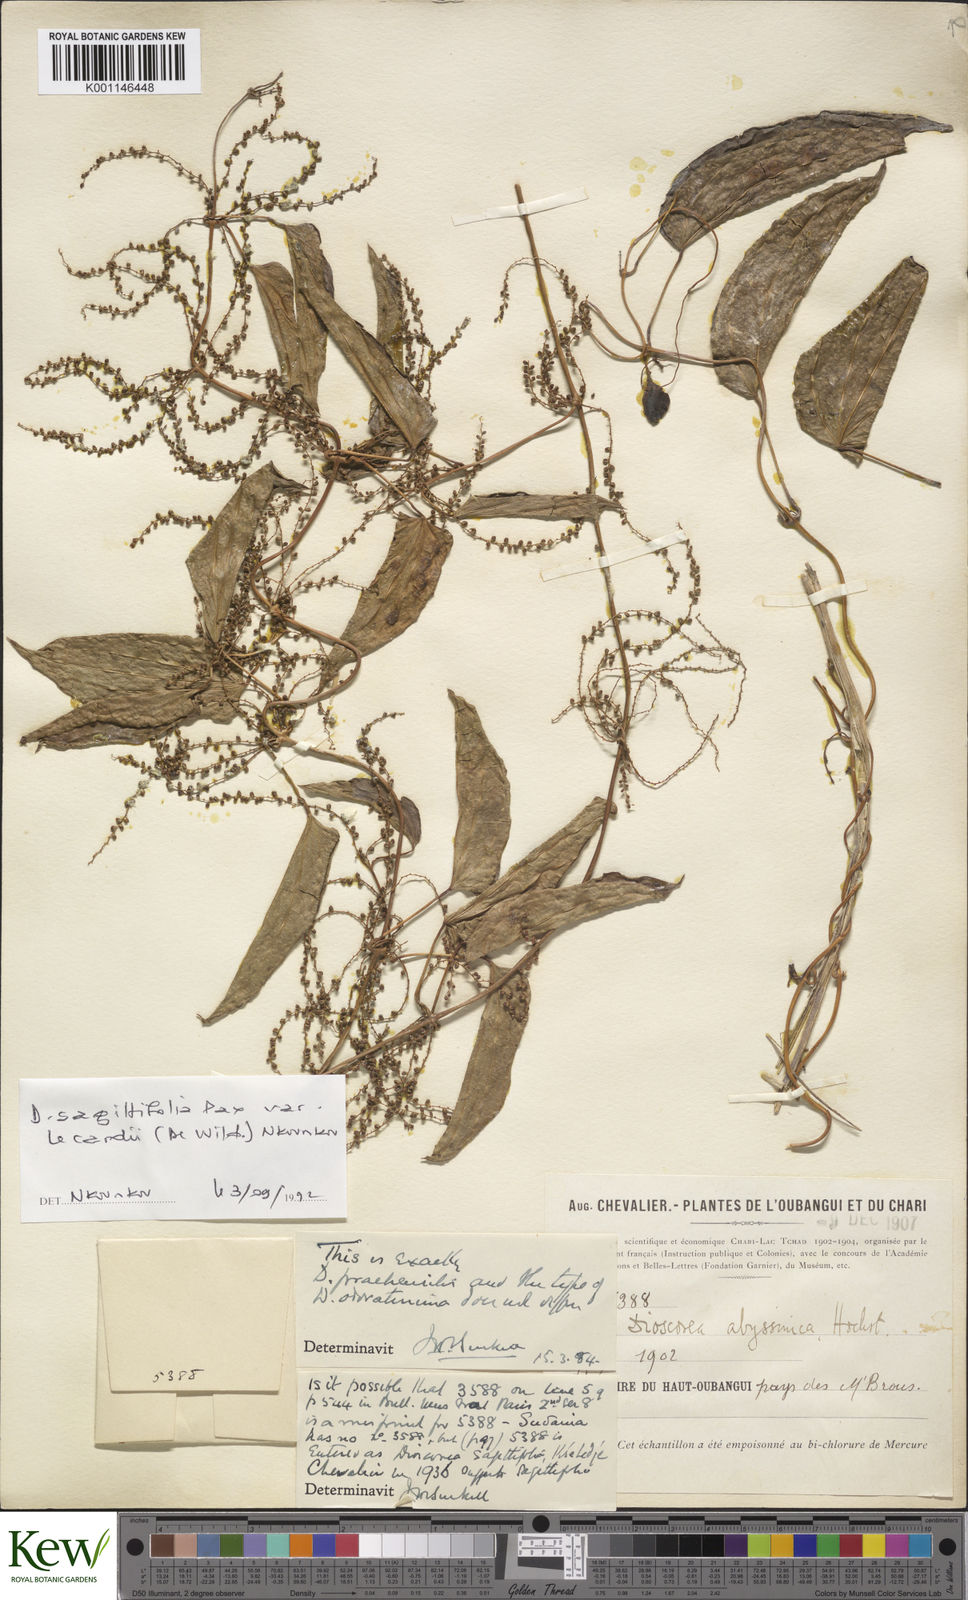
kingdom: Plantae
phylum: Tracheophyta
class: Liliopsida
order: Dioscoreales
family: Dioscoreaceae
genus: Dioscorea
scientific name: Dioscorea praehensilis
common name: Bush yam
